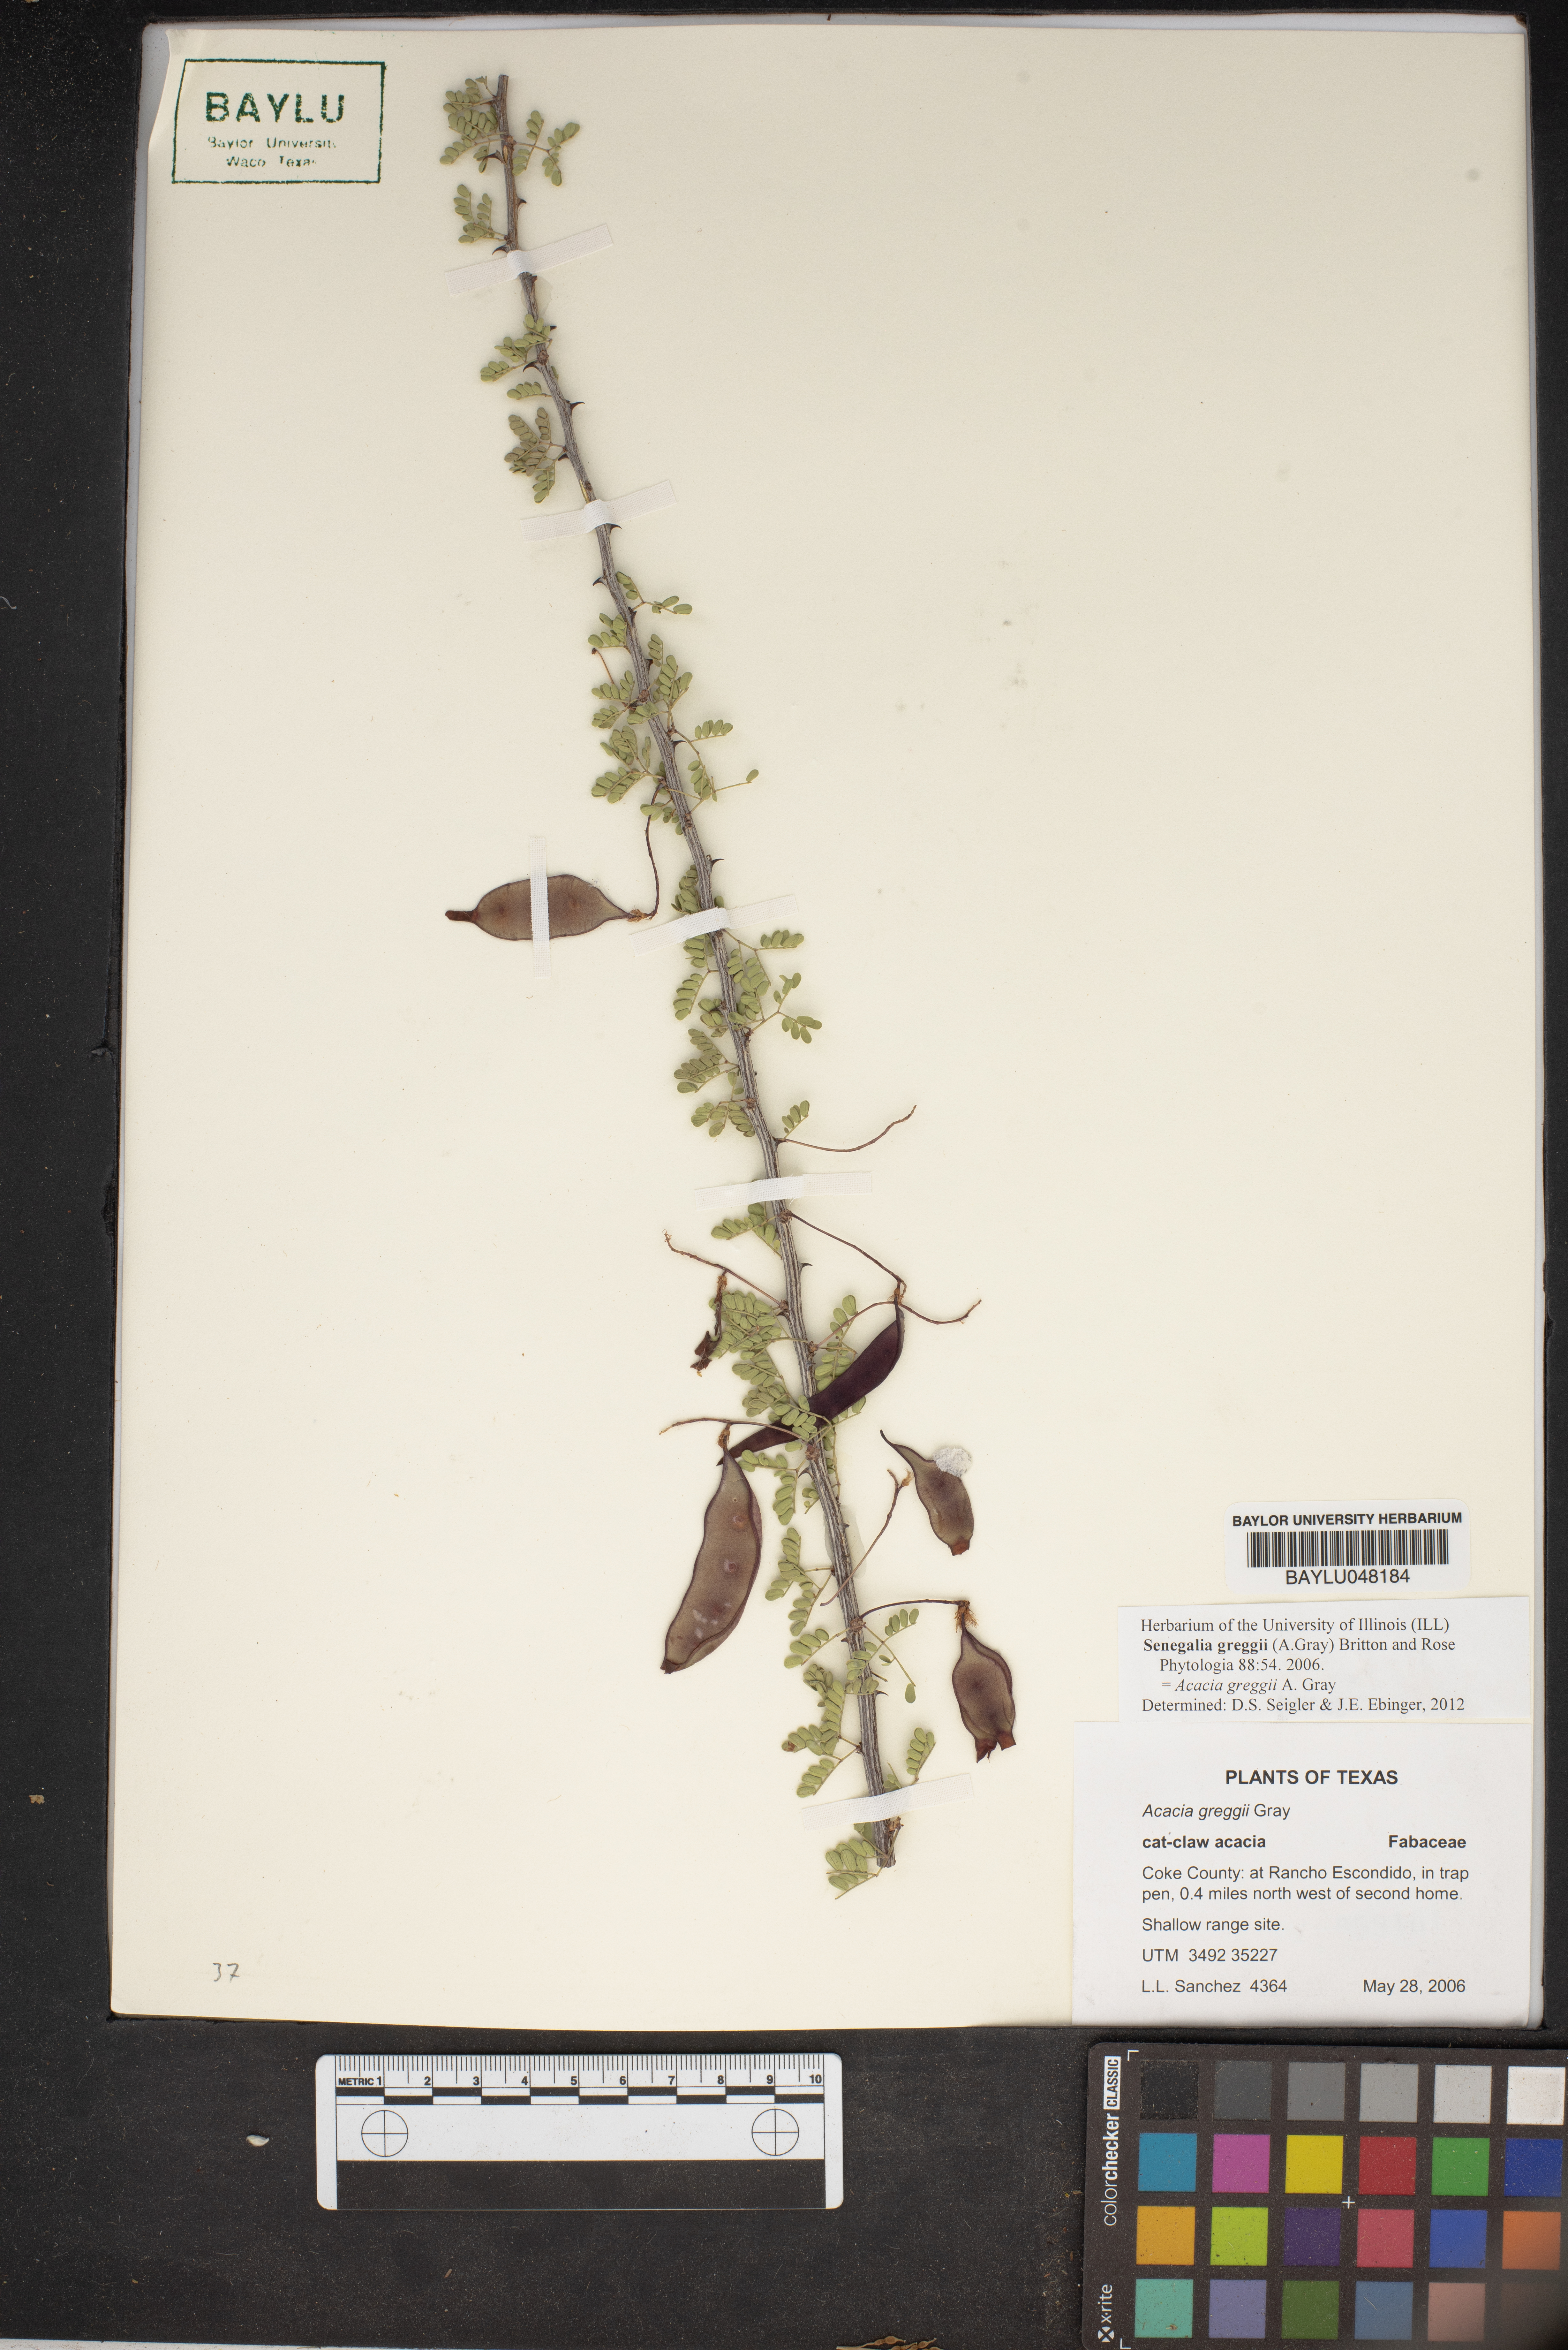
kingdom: Plantae
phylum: Tracheophyta
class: Magnoliopsida
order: Fabales
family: Fabaceae
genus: Senegalia
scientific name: Senegalia greggii
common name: Texas-mimosa
